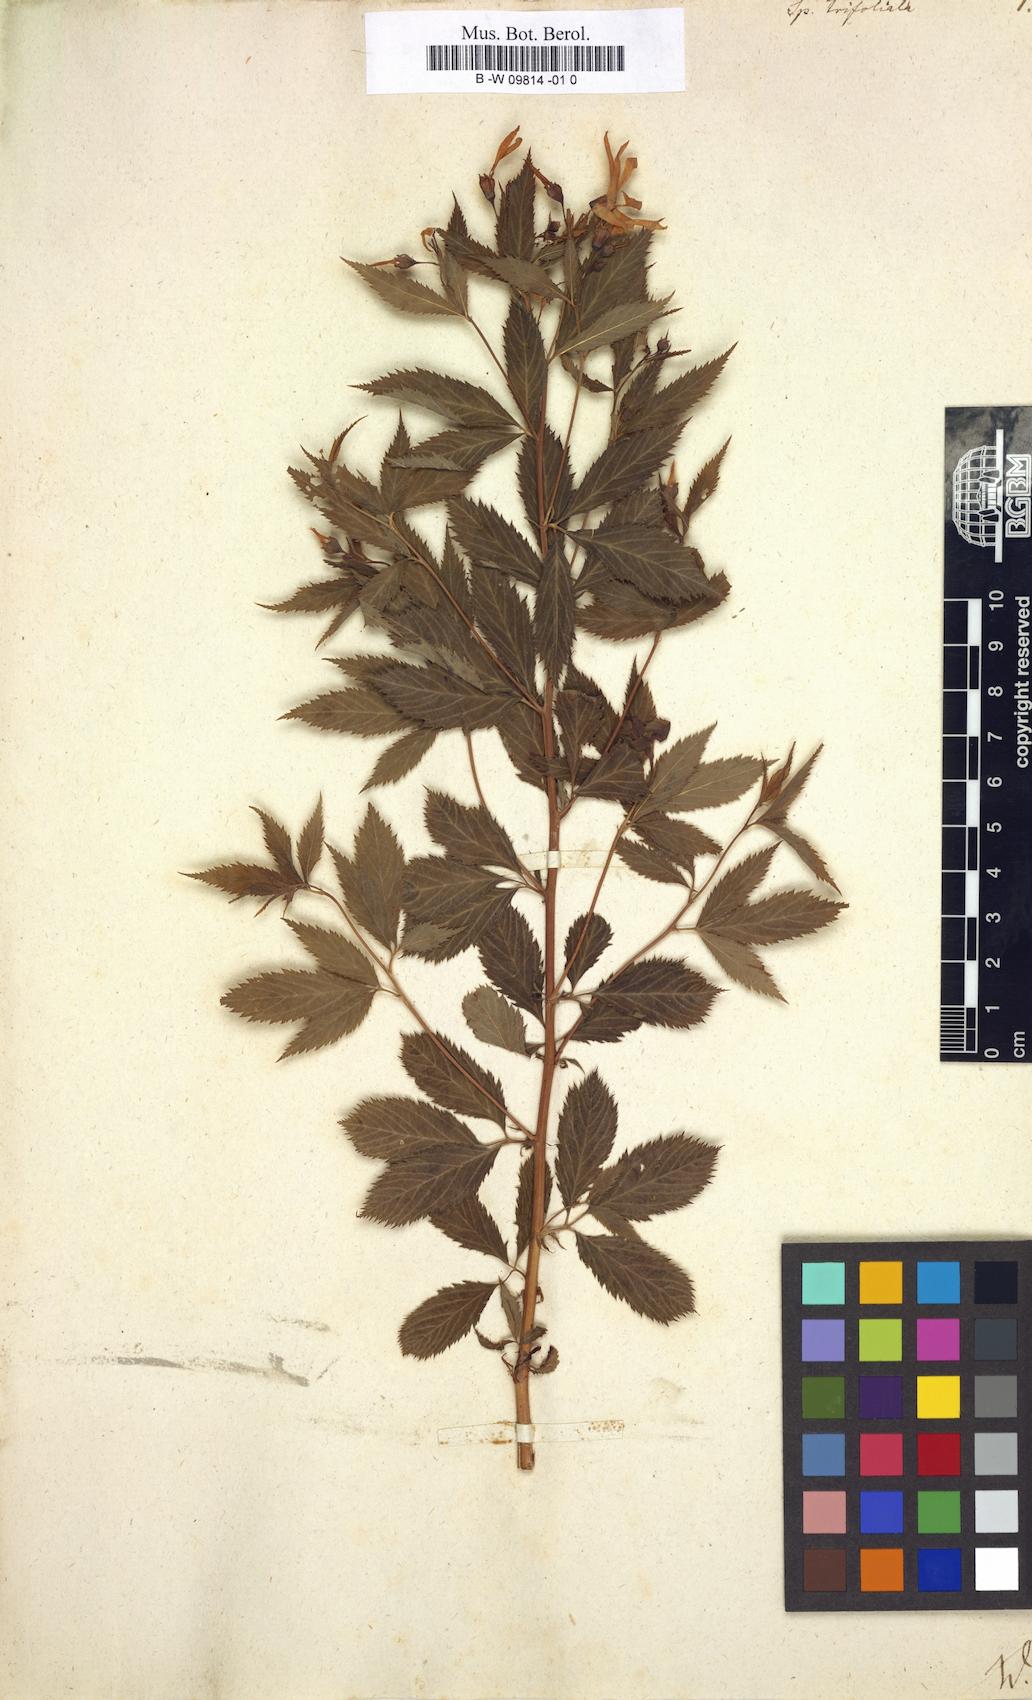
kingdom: Plantae
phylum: Tracheophyta
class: Magnoliopsida
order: Rosales
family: Rosaceae
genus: Gillenia
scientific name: Gillenia trifoliata
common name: Bowman's-root
